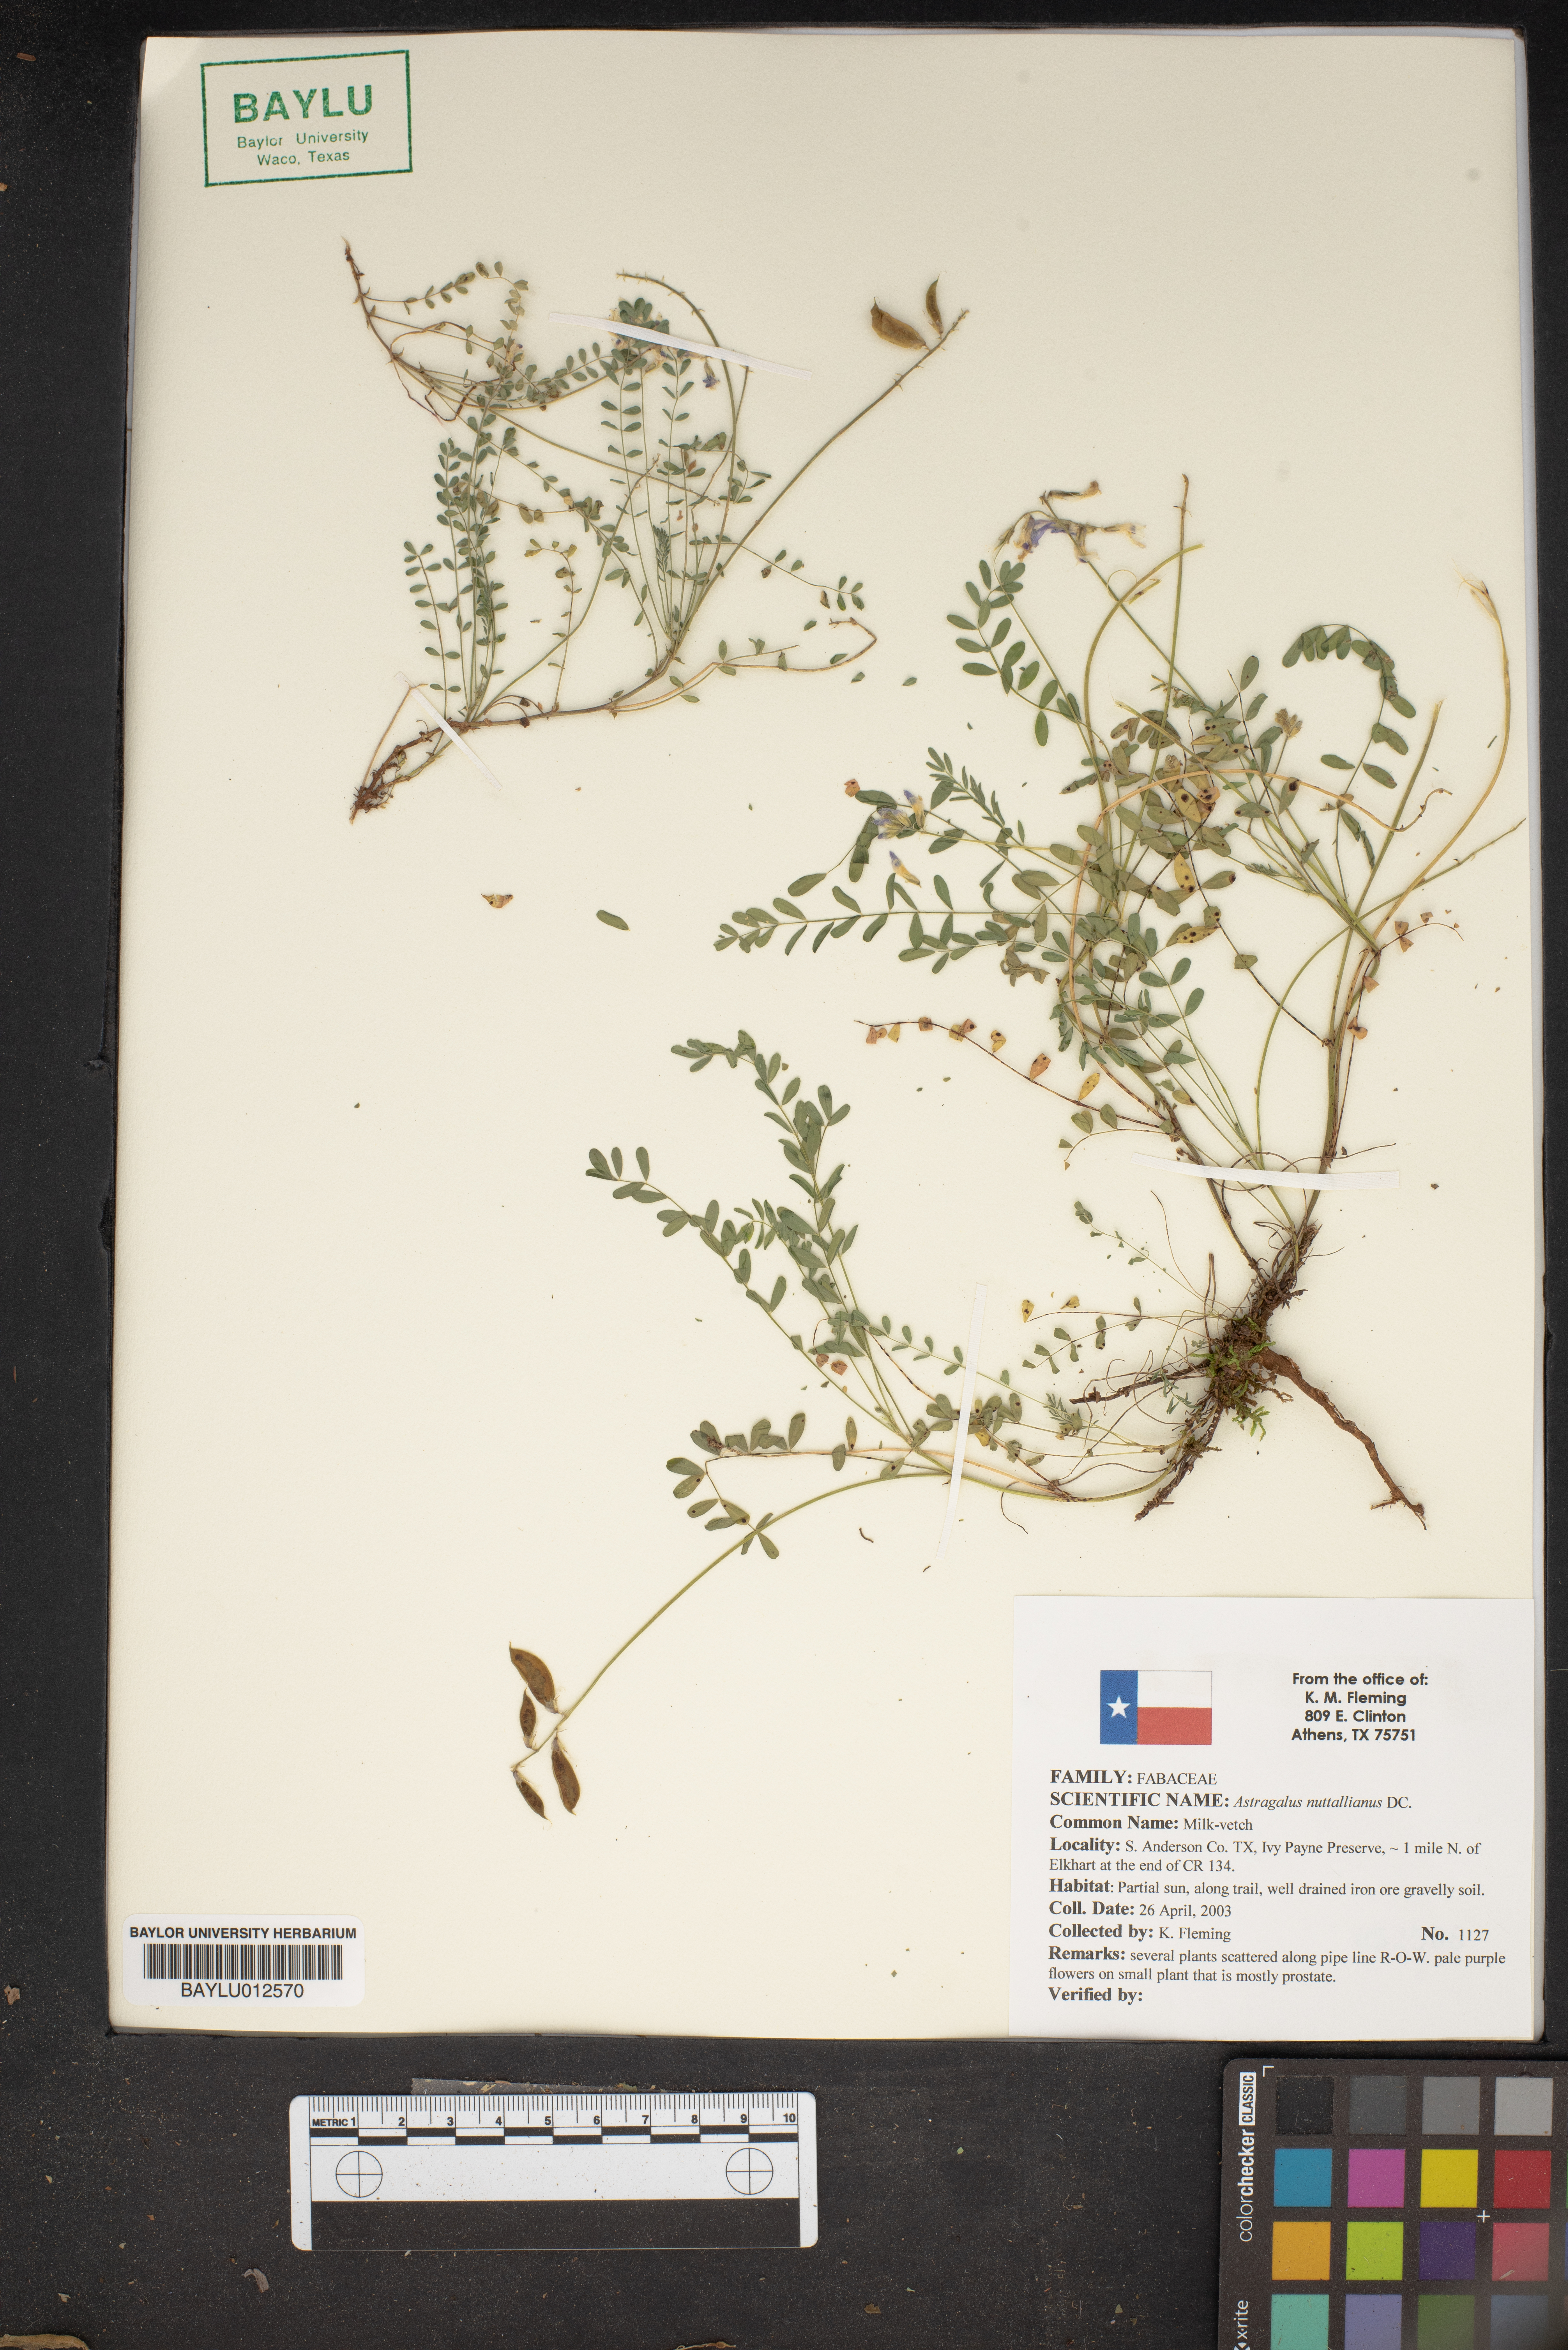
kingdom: Plantae
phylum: Tracheophyta
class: Magnoliopsida
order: Fabales
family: Fabaceae
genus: Astragalus
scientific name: Astragalus nuttallianus
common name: Smallflowered milkvetch
